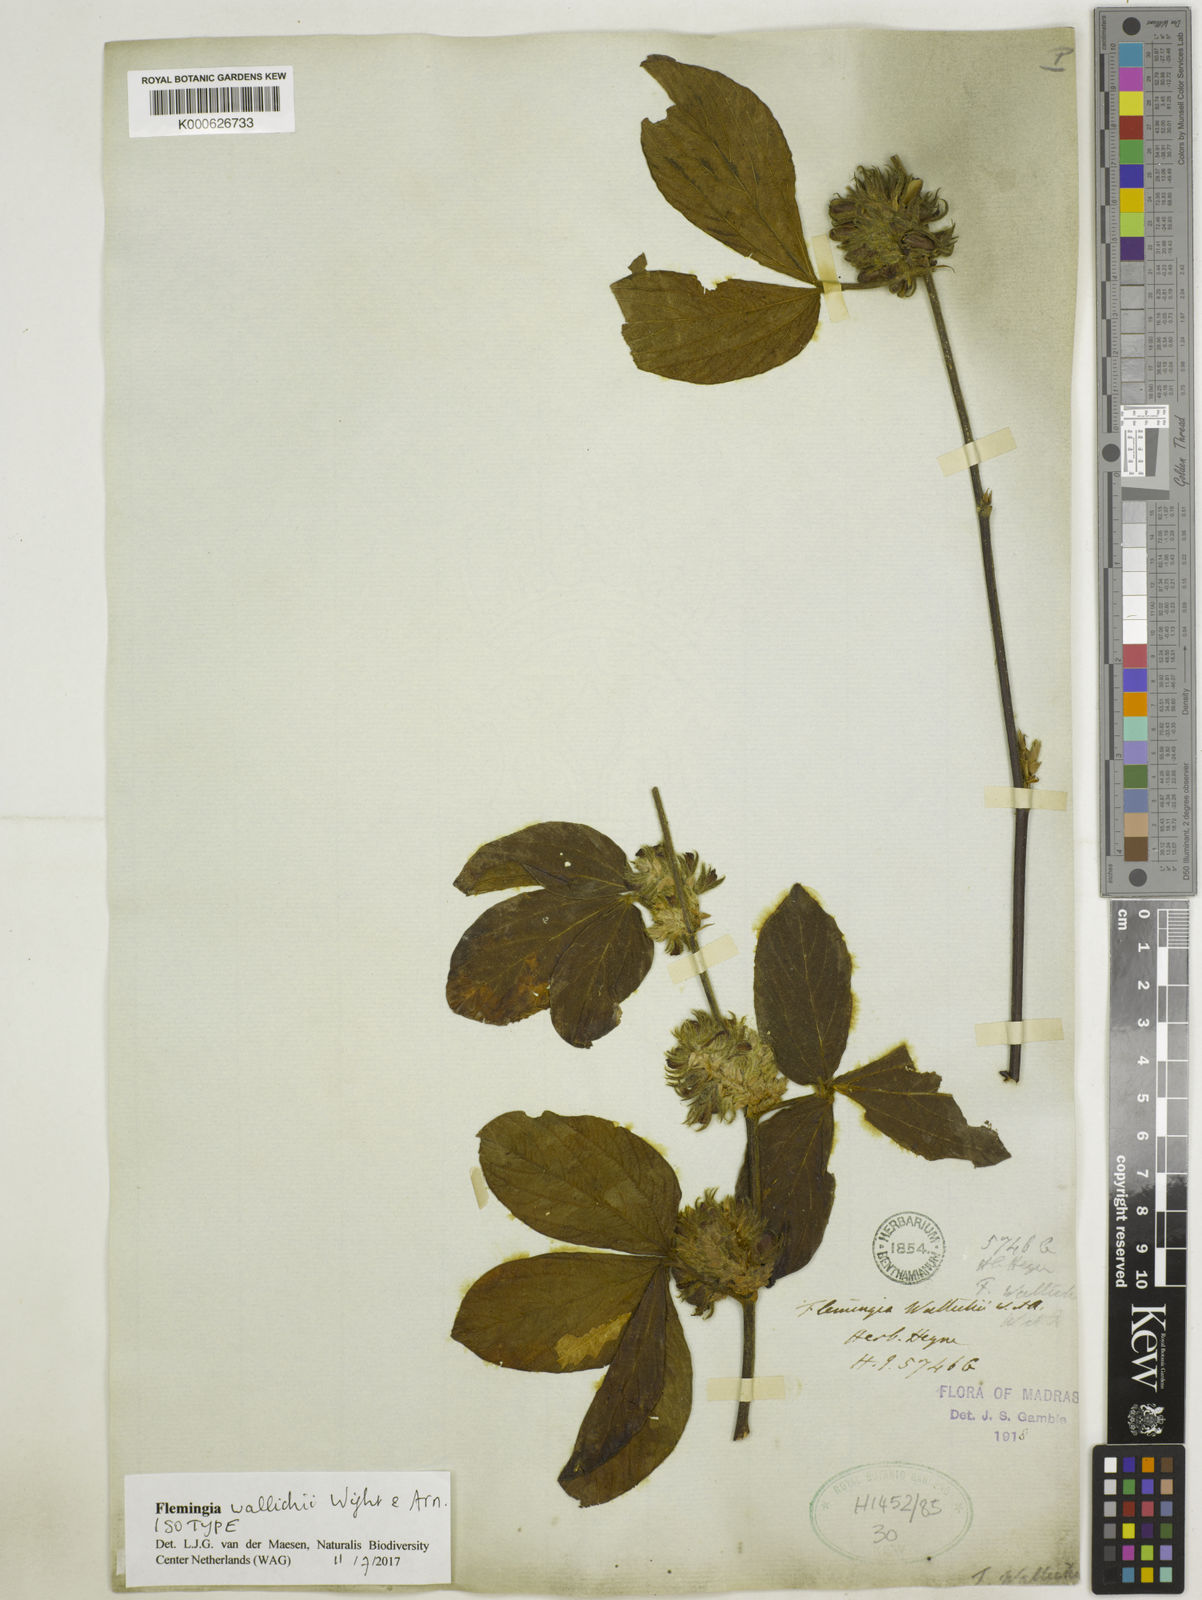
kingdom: Plantae
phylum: Tracheophyta
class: Magnoliopsida
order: Fabales
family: Fabaceae
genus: Flemingia
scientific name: Flemingia wallichii
